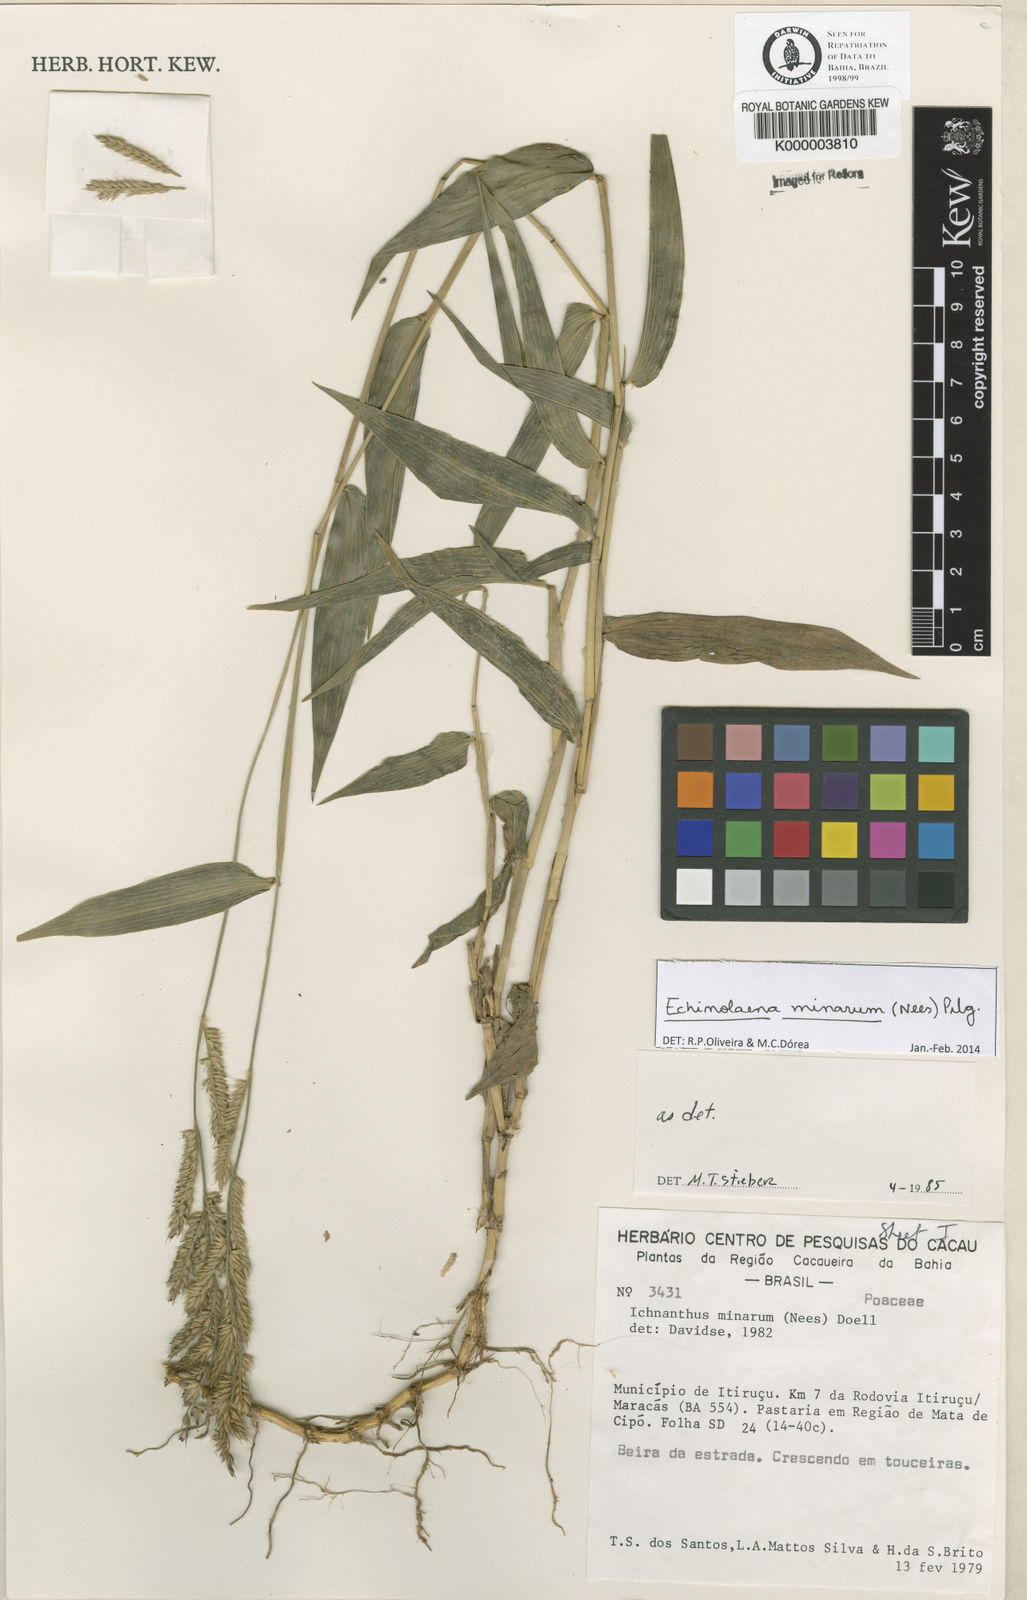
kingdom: Plantae
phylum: Tracheophyta
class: Liliopsida
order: Poales
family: Poaceae
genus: Echinolaena
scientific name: Echinolaena
